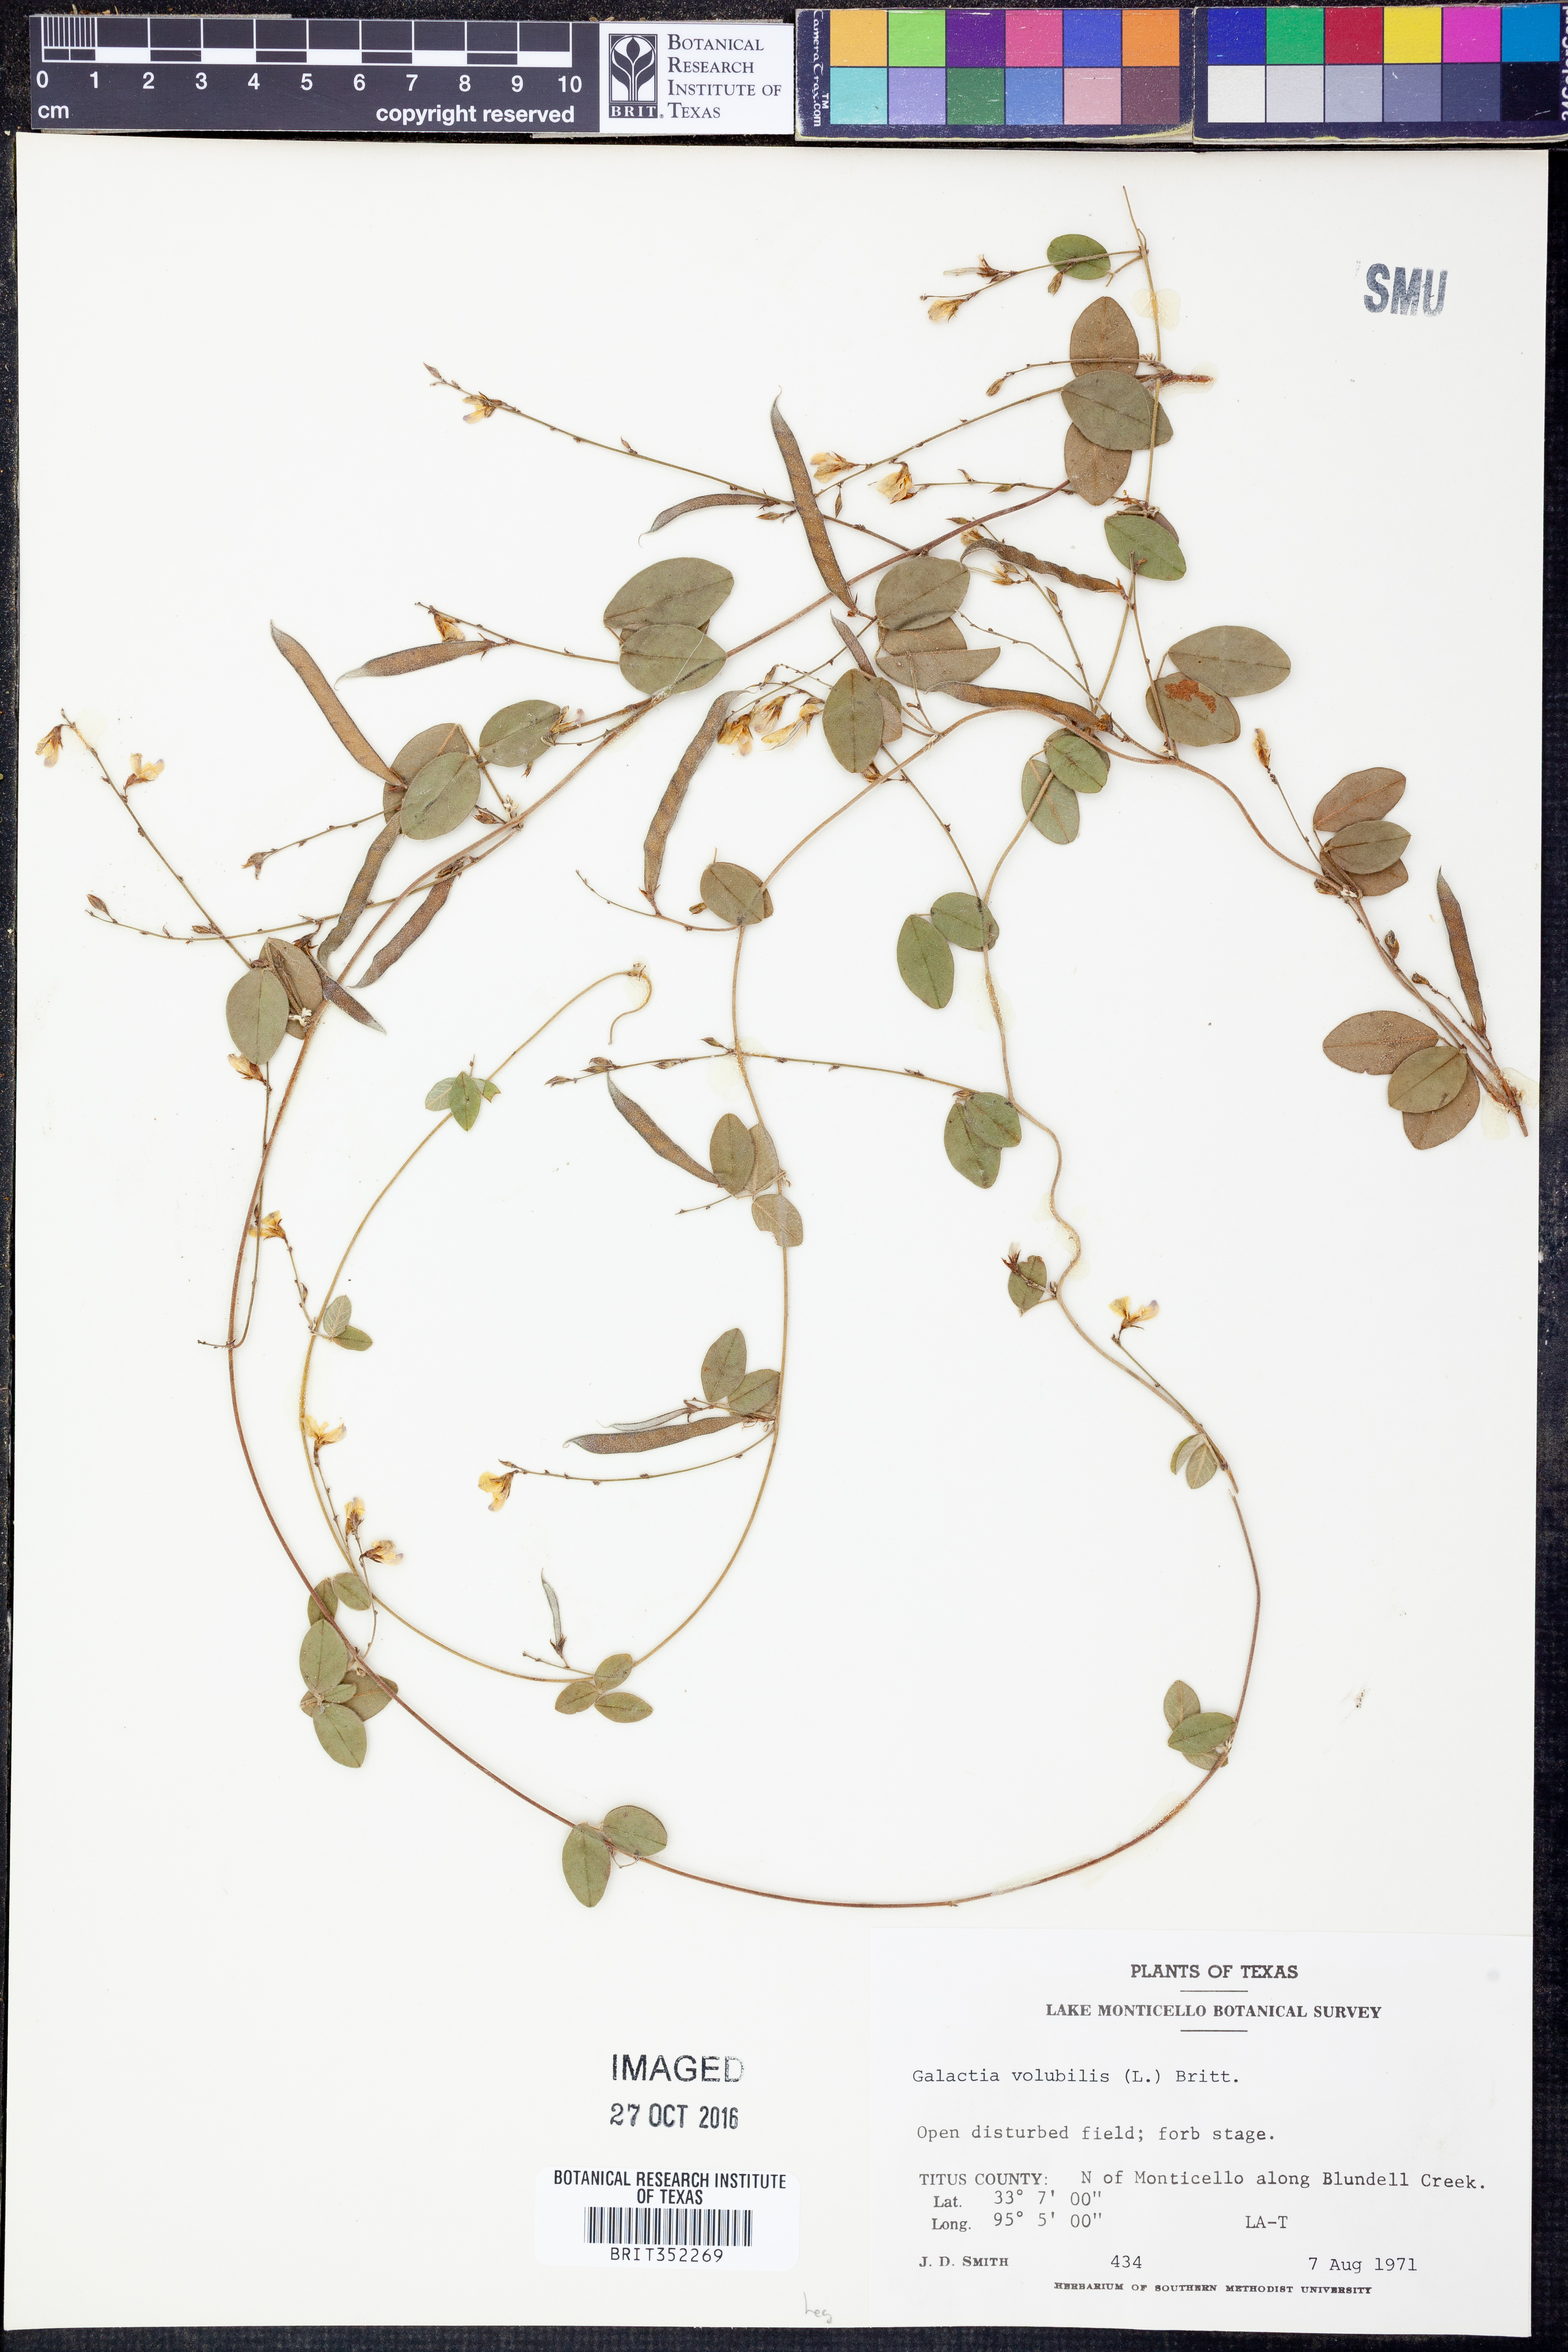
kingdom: Plantae
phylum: Tracheophyta
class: Magnoliopsida
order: Fabales
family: Fabaceae
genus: Galactia
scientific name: Galactia volubilis
